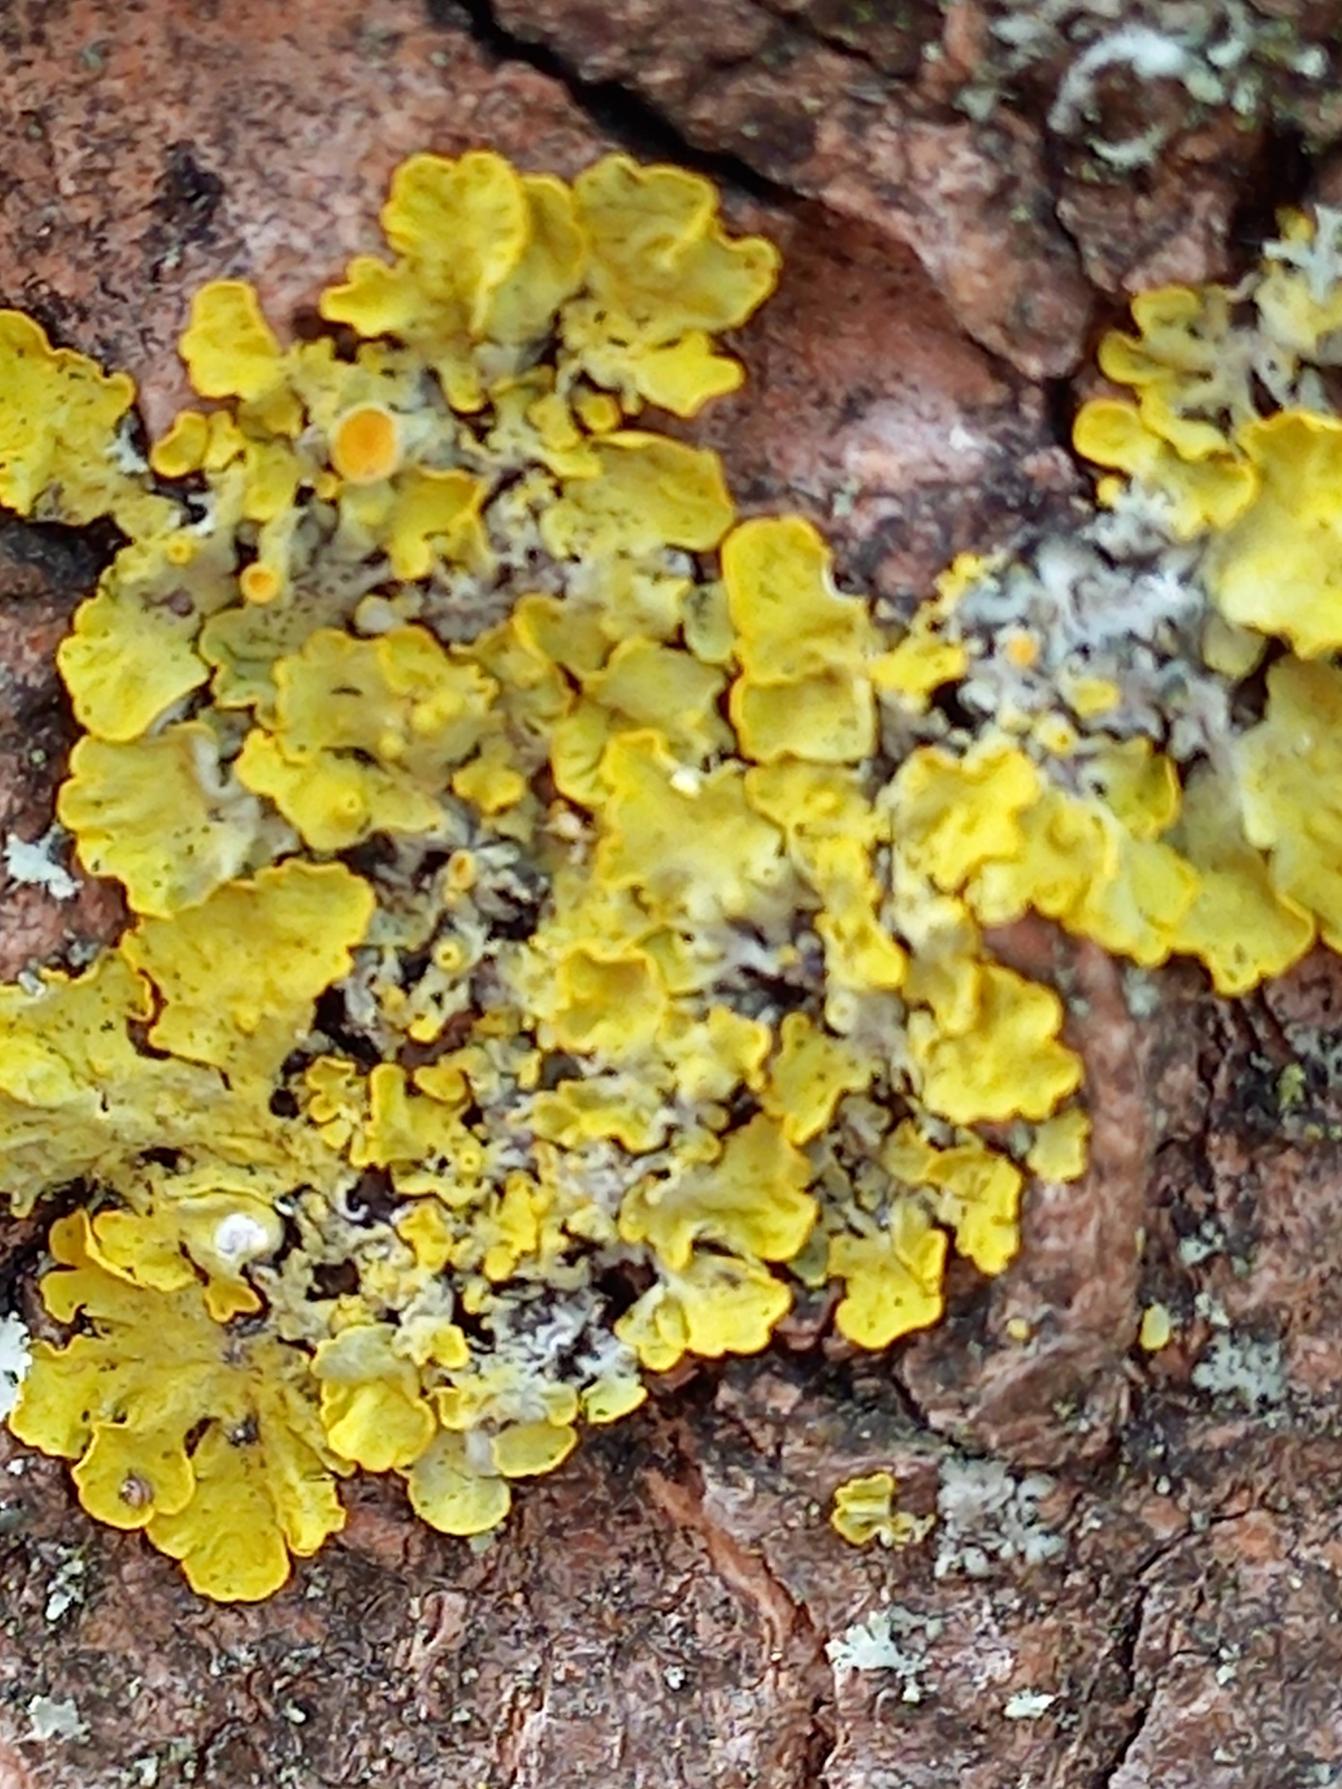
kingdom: Fungi
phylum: Ascomycota
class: Lecanoromycetes
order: Teloschistales
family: Teloschistaceae
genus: Xanthoria
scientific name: Xanthoria parietina
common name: Almindelig væggelav
